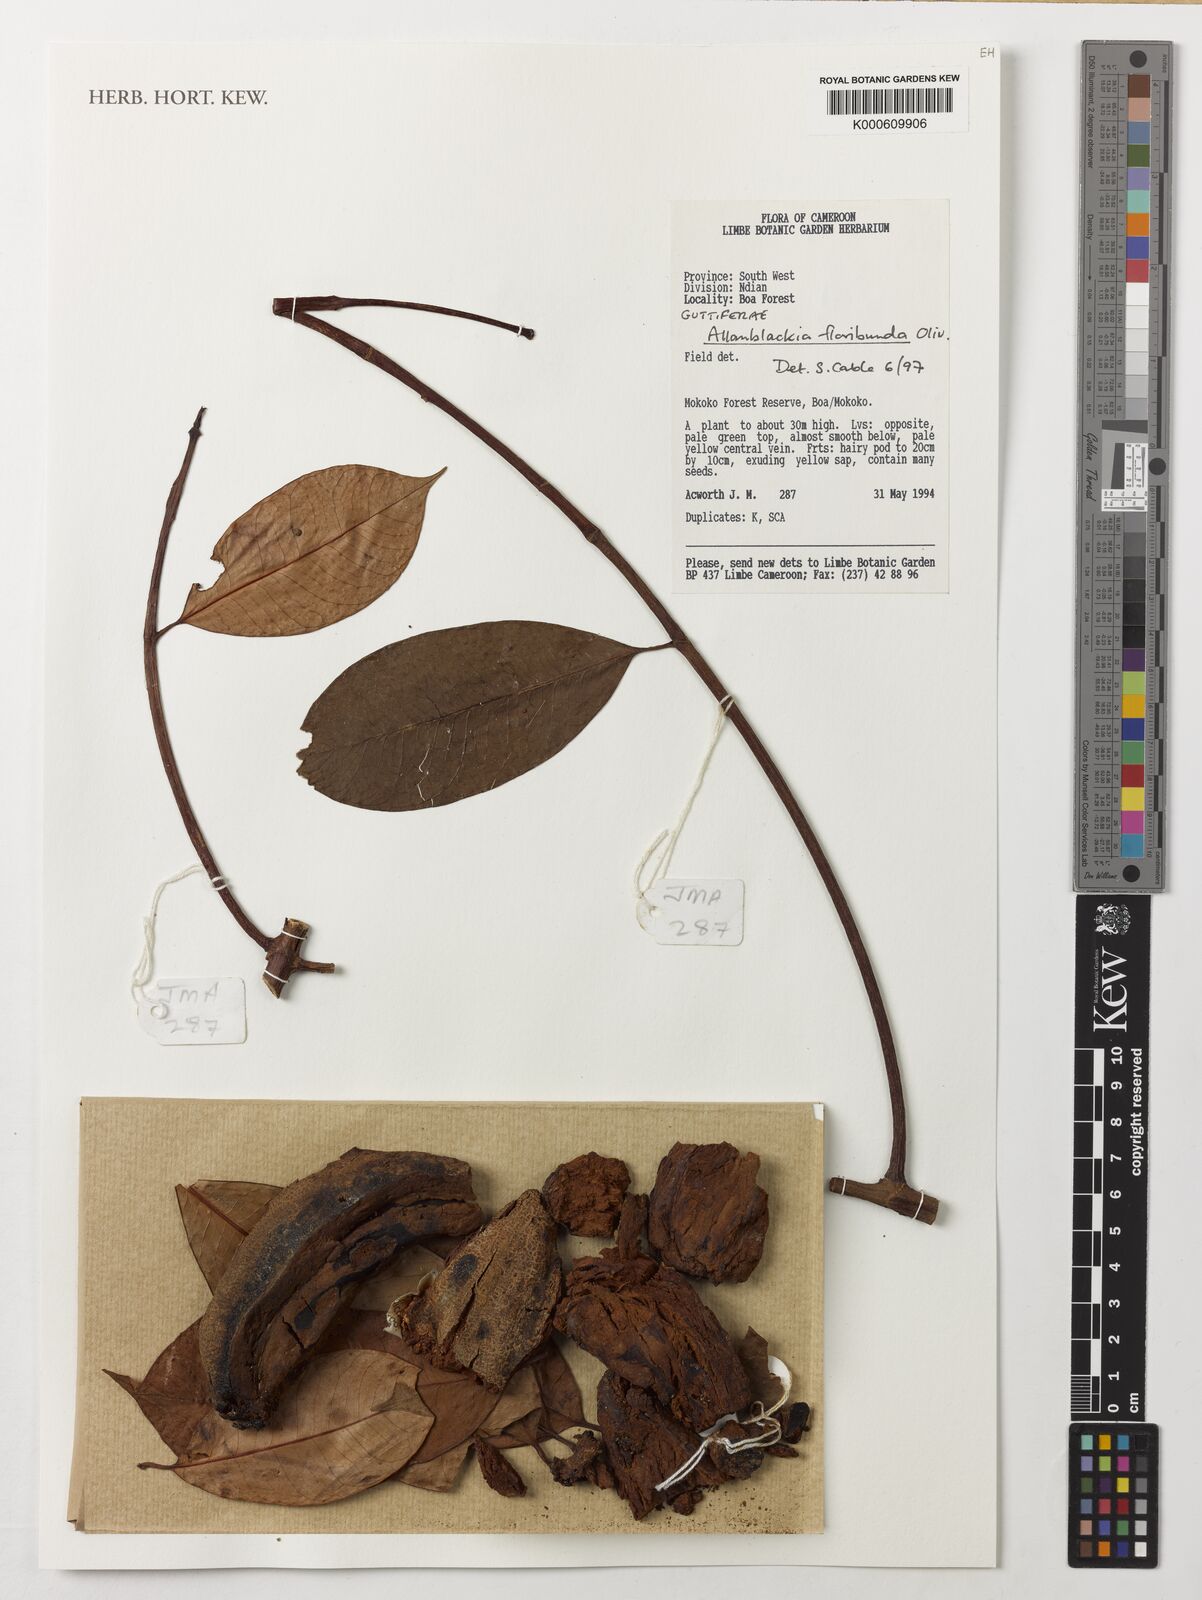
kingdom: Plantae
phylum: Tracheophyta
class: Magnoliopsida
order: Malpighiales
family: Clusiaceae
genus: Allanblackia
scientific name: Allanblackia floribunda
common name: Tallow tree
